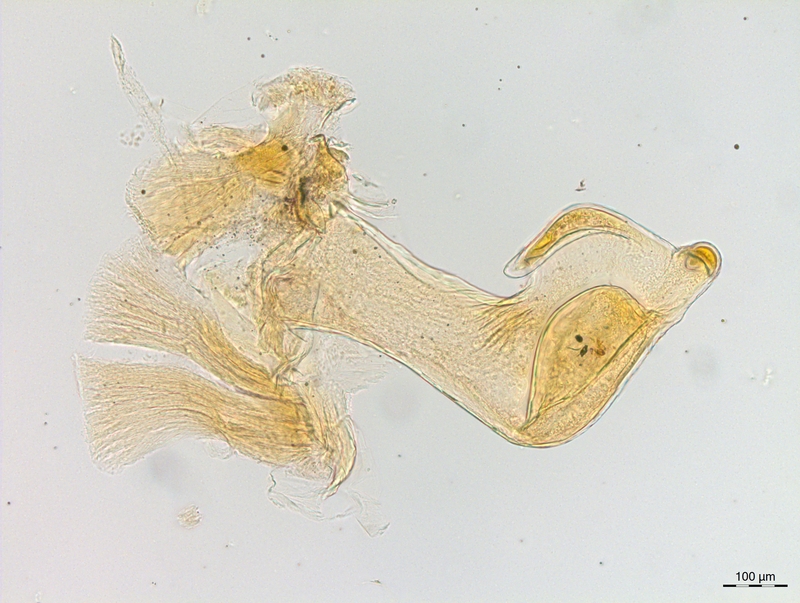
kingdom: Animalia
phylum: Arthropoda
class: Diplopoda
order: Chordeumatida
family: Craspedosomatidae
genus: Craspedosoma
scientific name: Craspedosoma rawlinsii
